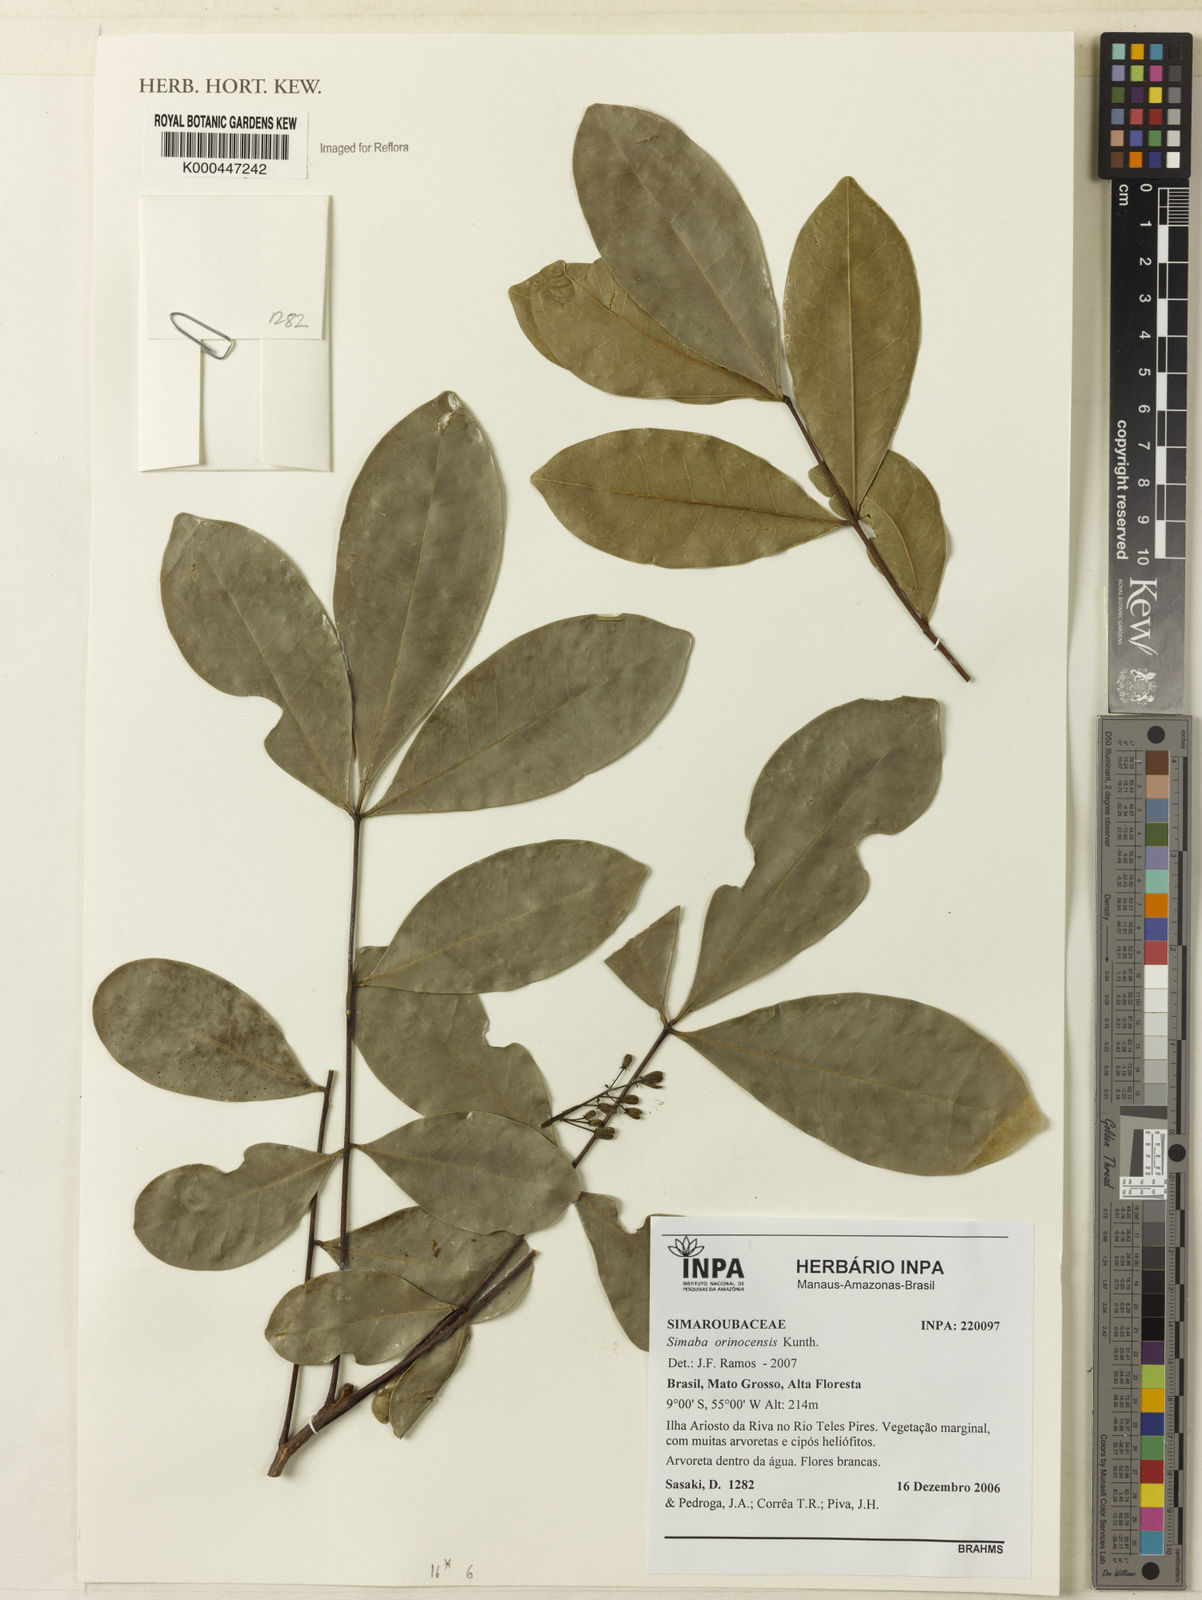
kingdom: Plantae
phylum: Tracheophyta
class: Magnoliopsida
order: Sapindales
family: Simaroubaceae
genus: Simaba
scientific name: Simaba orinocensis
